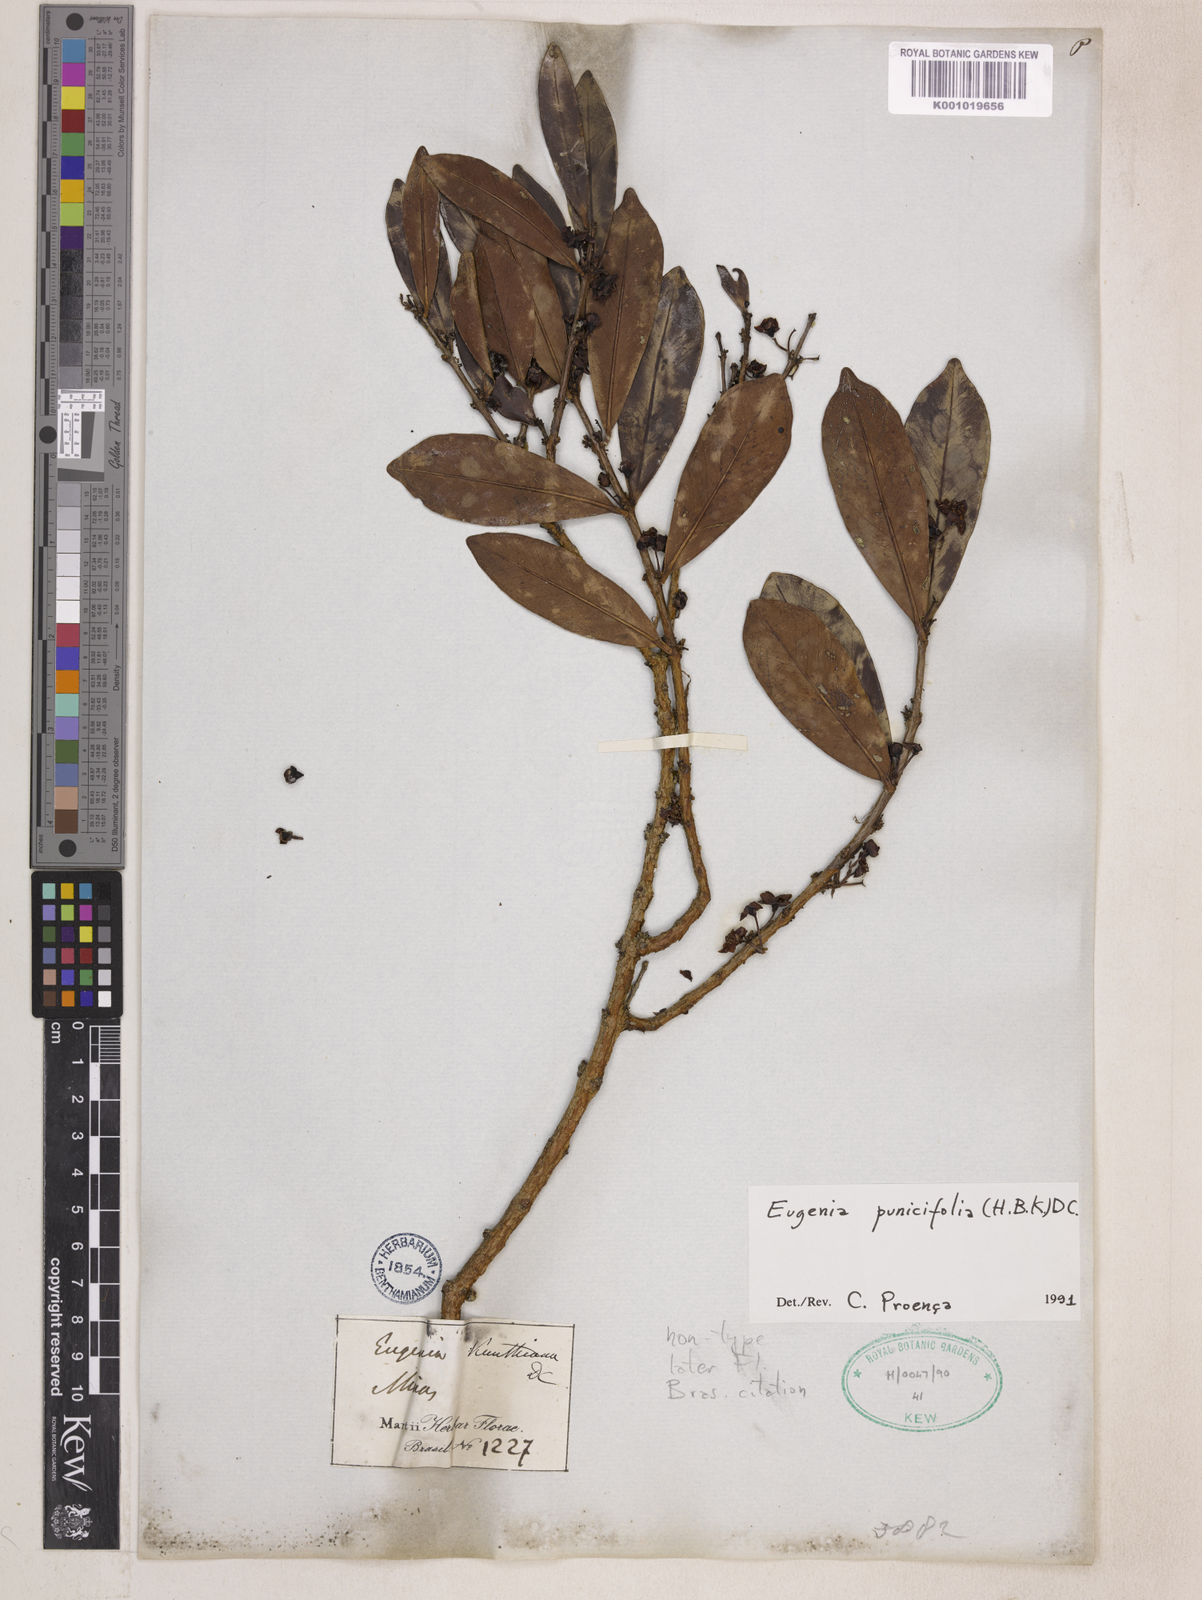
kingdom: Plantae
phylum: Tracheophyta
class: Magnoliopsida
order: Myrtales
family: Myrtaceae
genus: Eugenia
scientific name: Eugenia punicifolia
